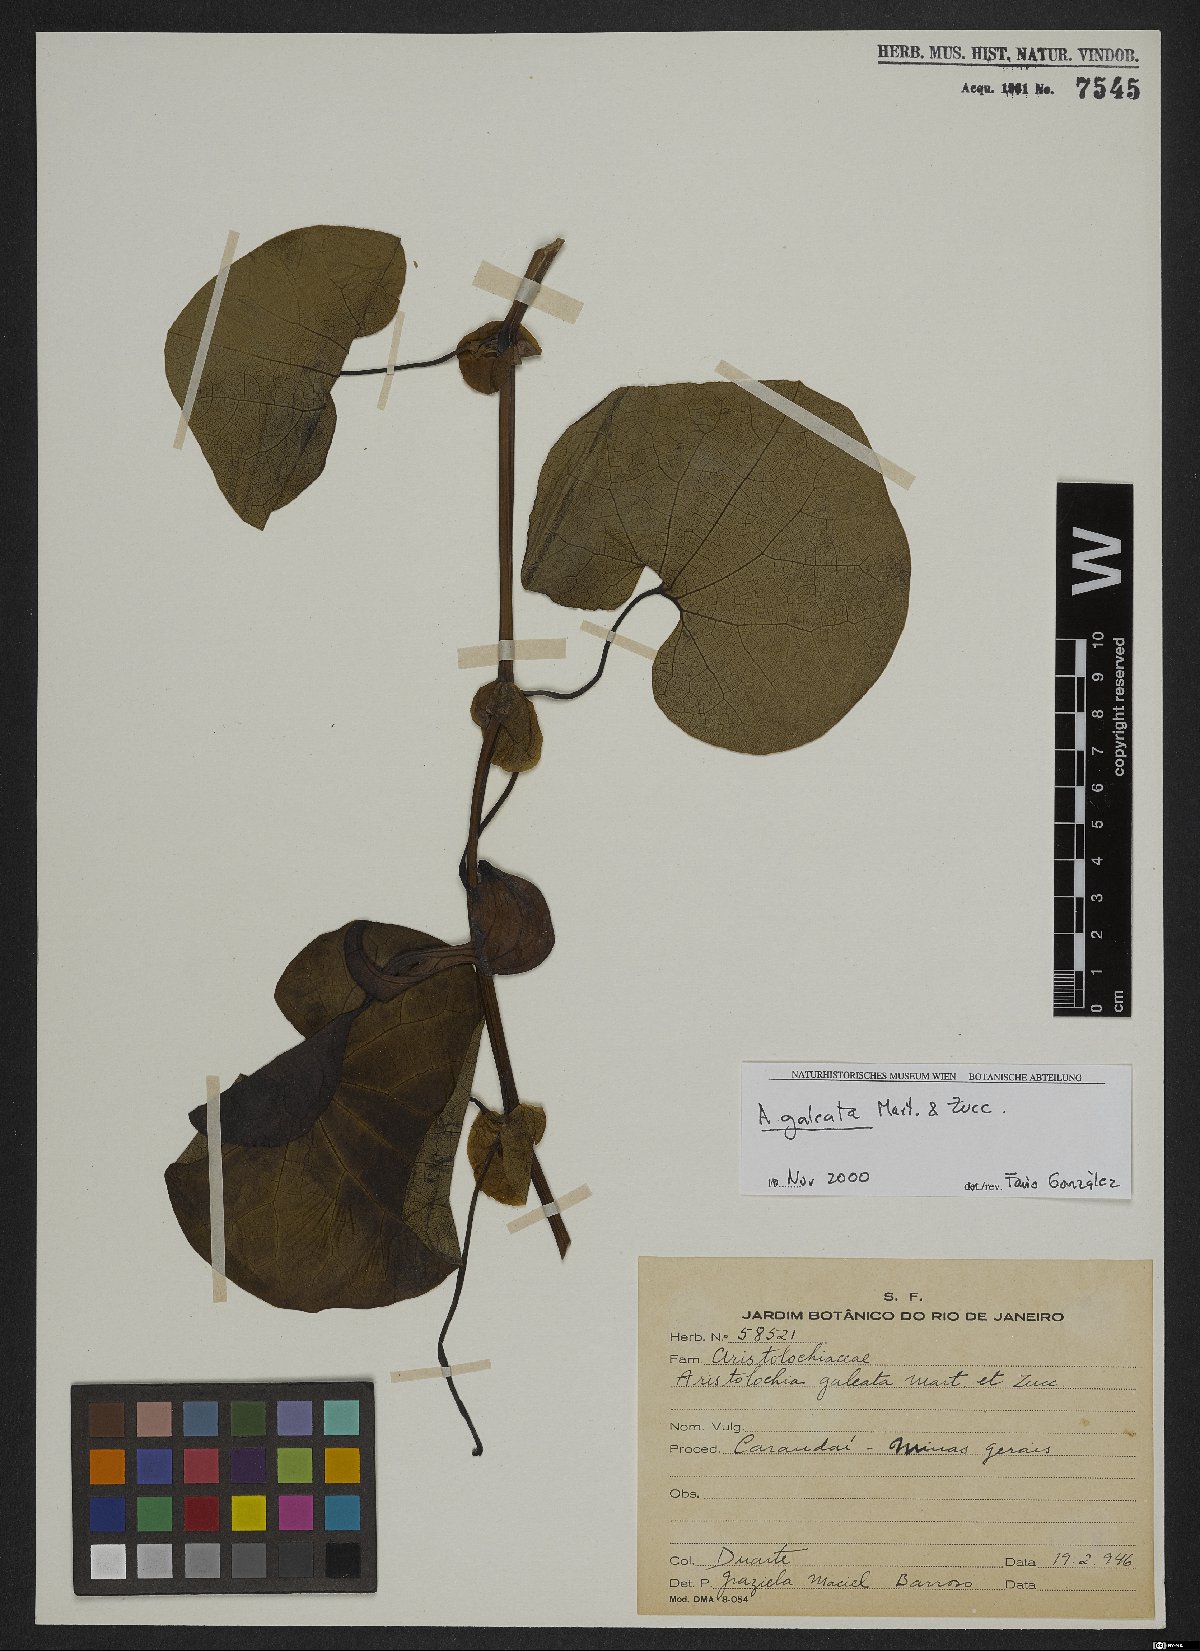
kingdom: Plantae
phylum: Tracheophyta
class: Magnoliopsida
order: Piperales
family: Aristolochiaceae
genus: Aristolochia
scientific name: Aristolochia
